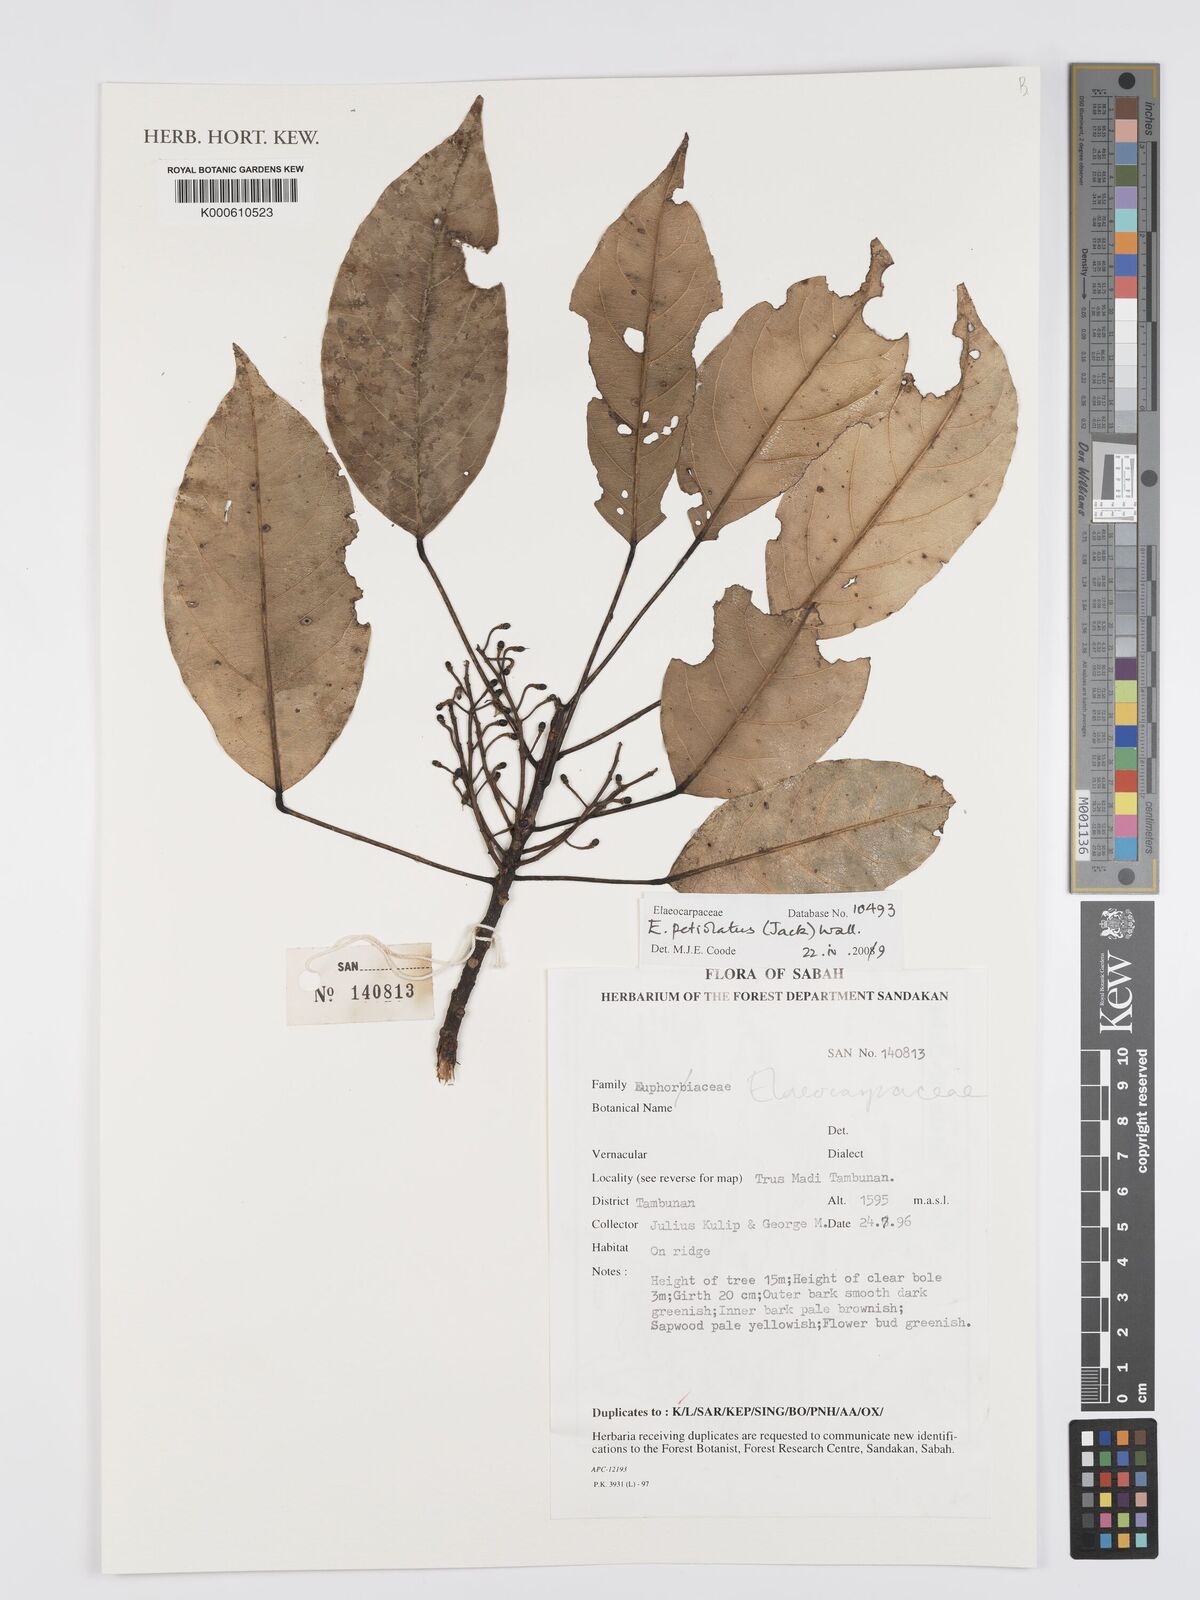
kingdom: Plantae
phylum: Tracheophyta
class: Magnoliopsida
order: Oxalidales
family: Elaeocarpaceae
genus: Elaeocarpus
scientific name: Elaeocarpus petiolatus
